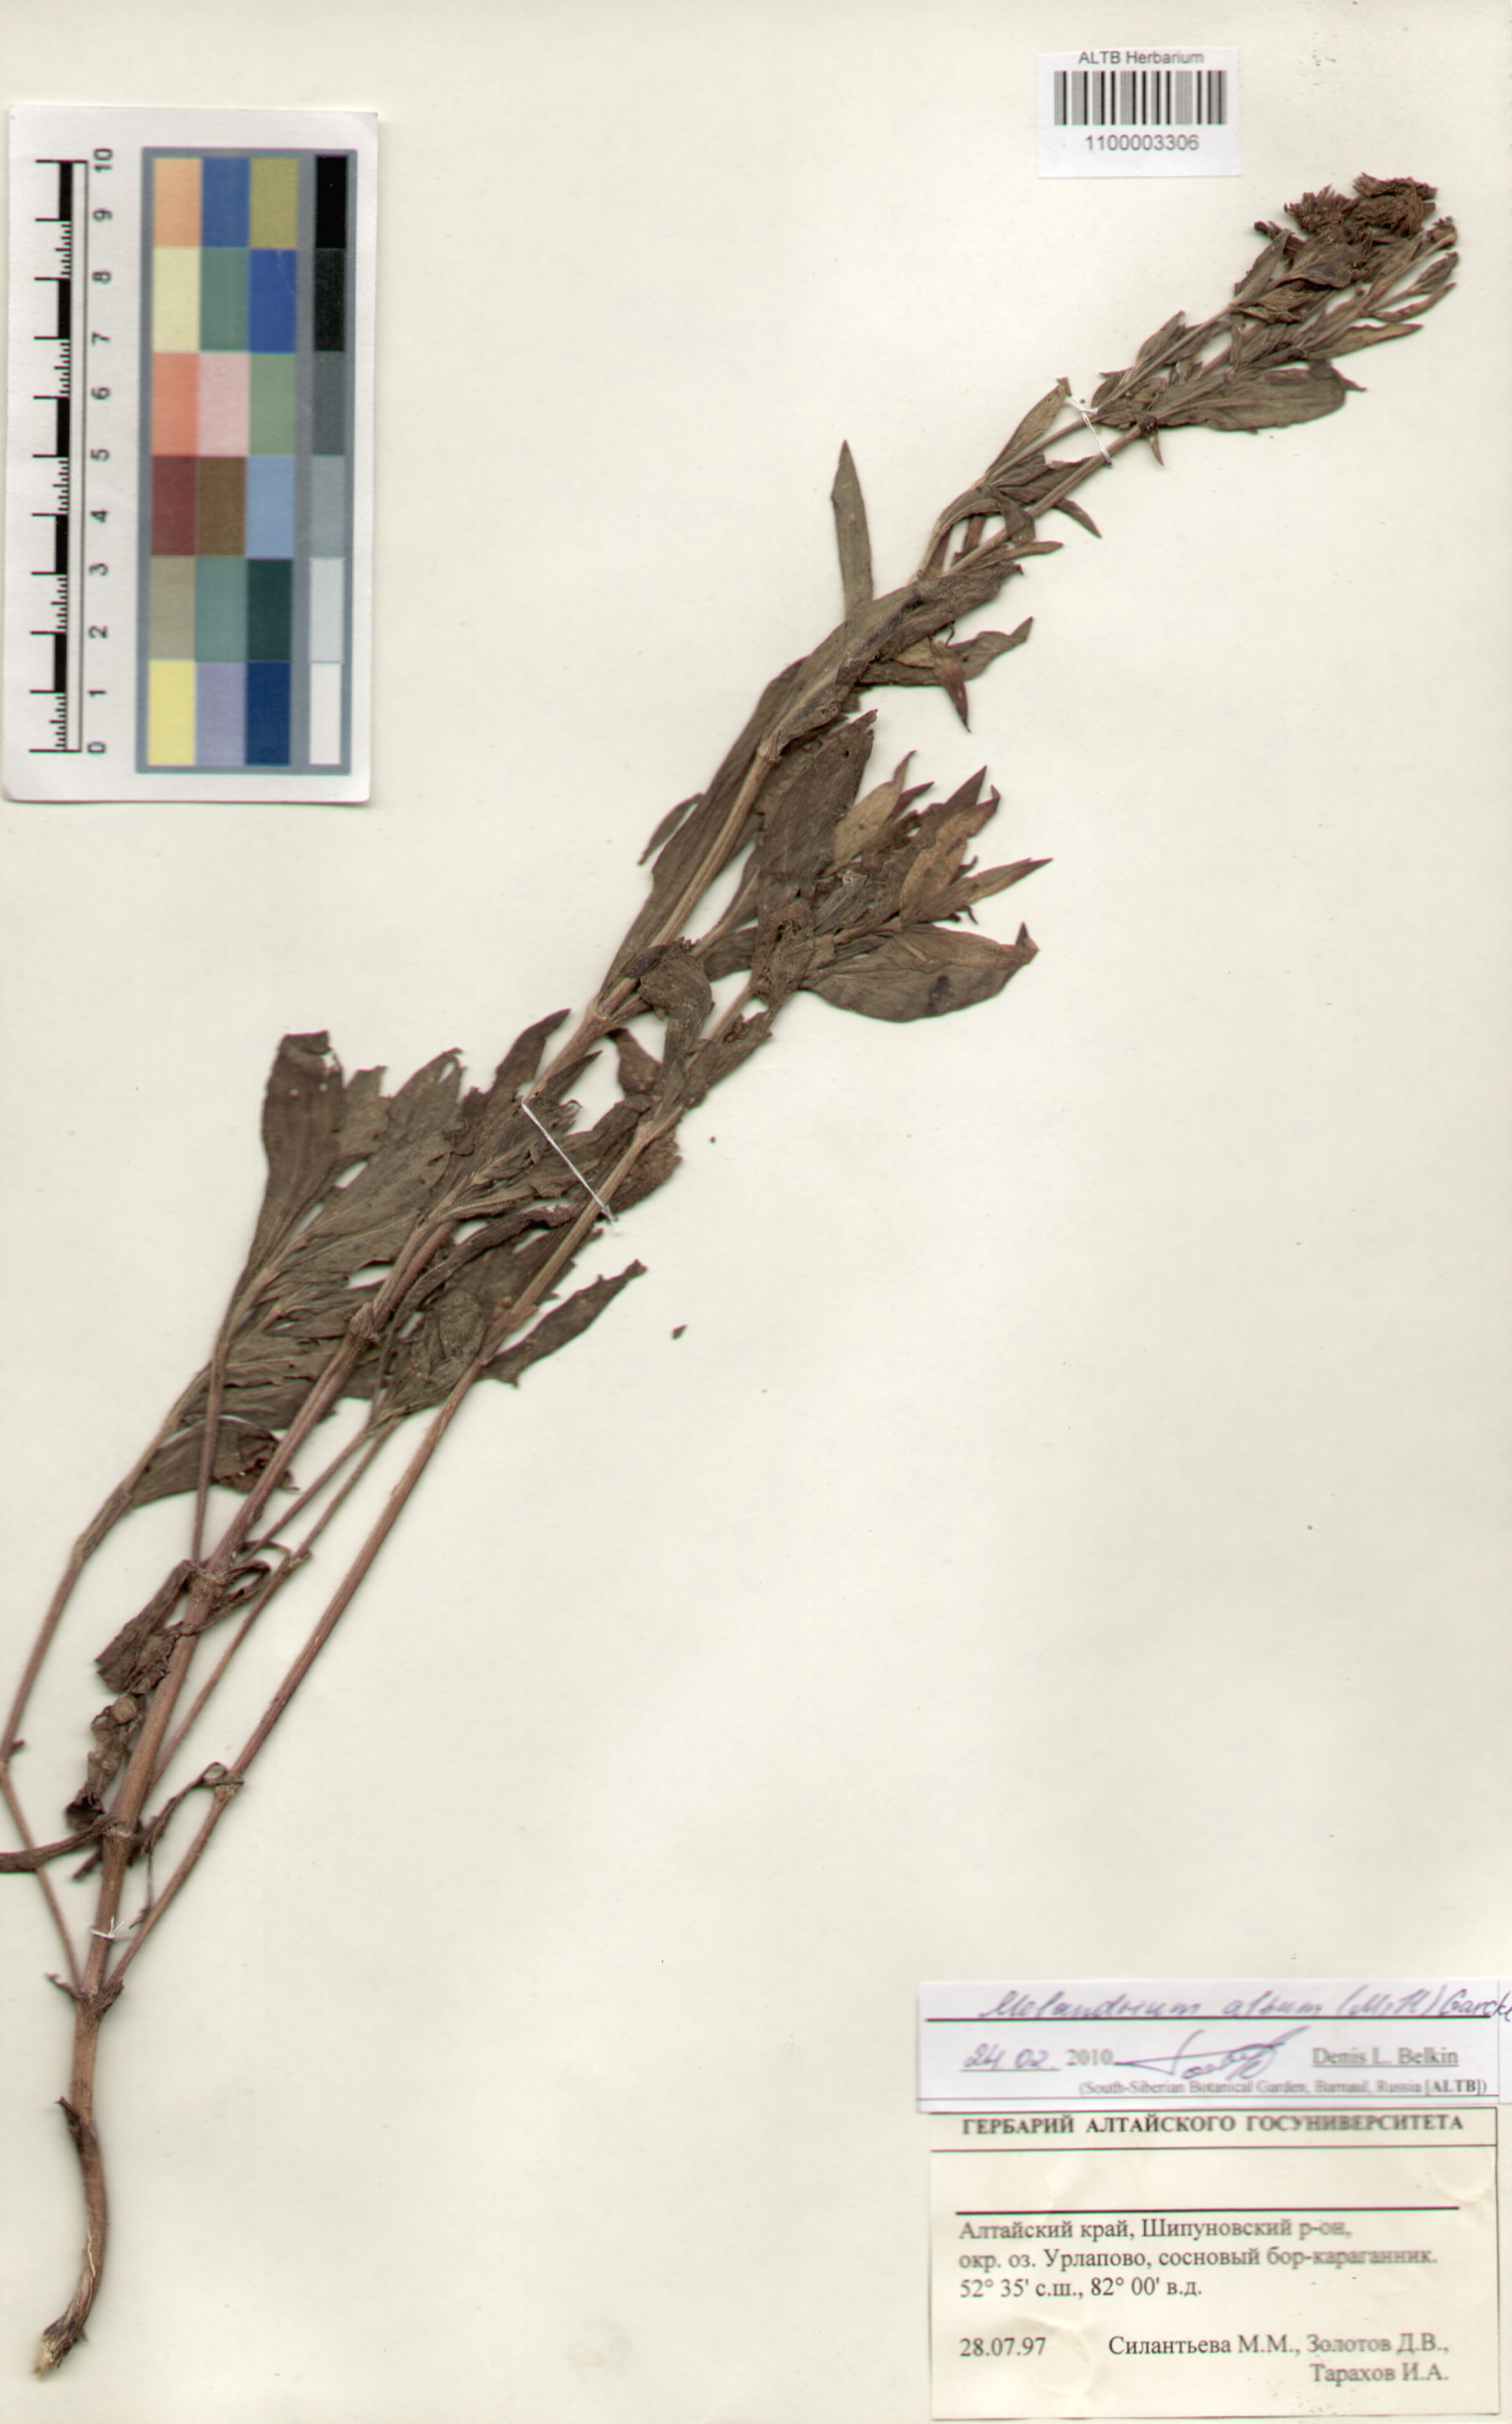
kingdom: Plantae
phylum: Tracheophyta
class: Magnoliopsida
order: Caryophyllales
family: Caryophyllaceae
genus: Silene
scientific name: Silene latifolia
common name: White campion
